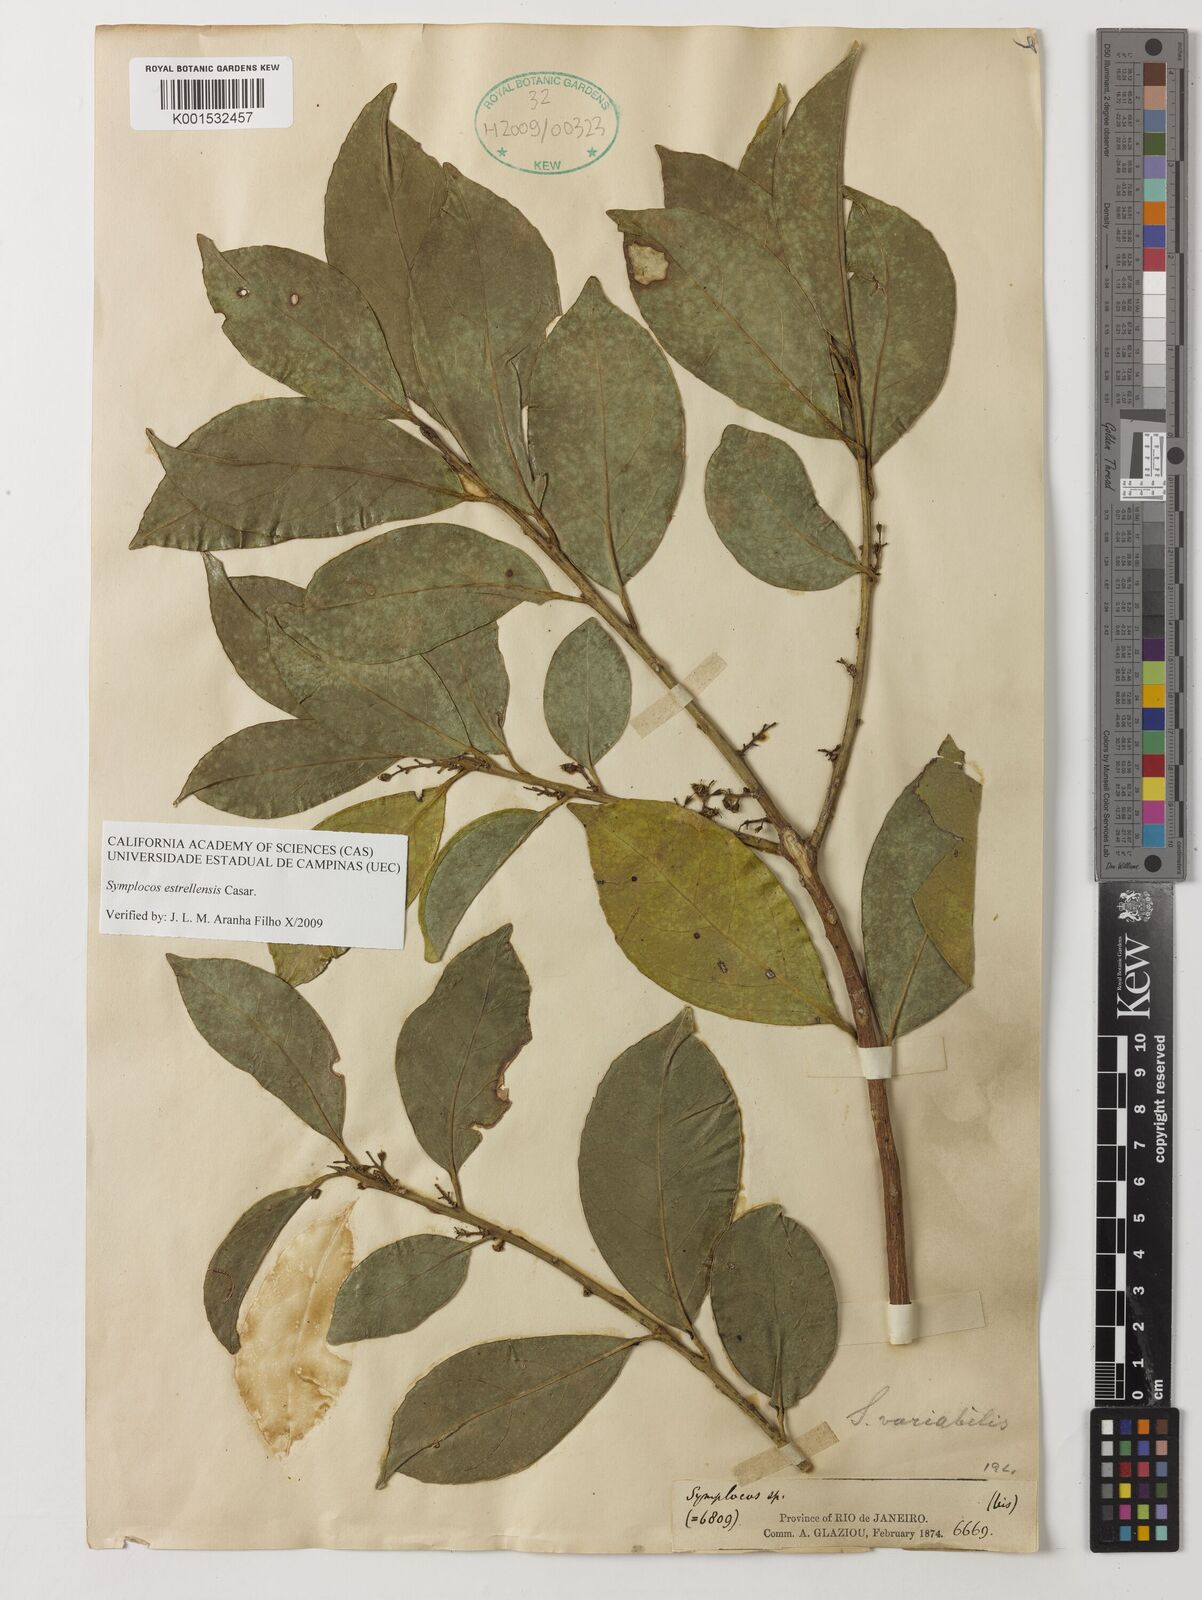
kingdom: Plantae
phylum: Tracheophyta
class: Magnoliopsida
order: Ericales
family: Symplocaceae
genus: Symplocos
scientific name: Symplocos estrellensis
